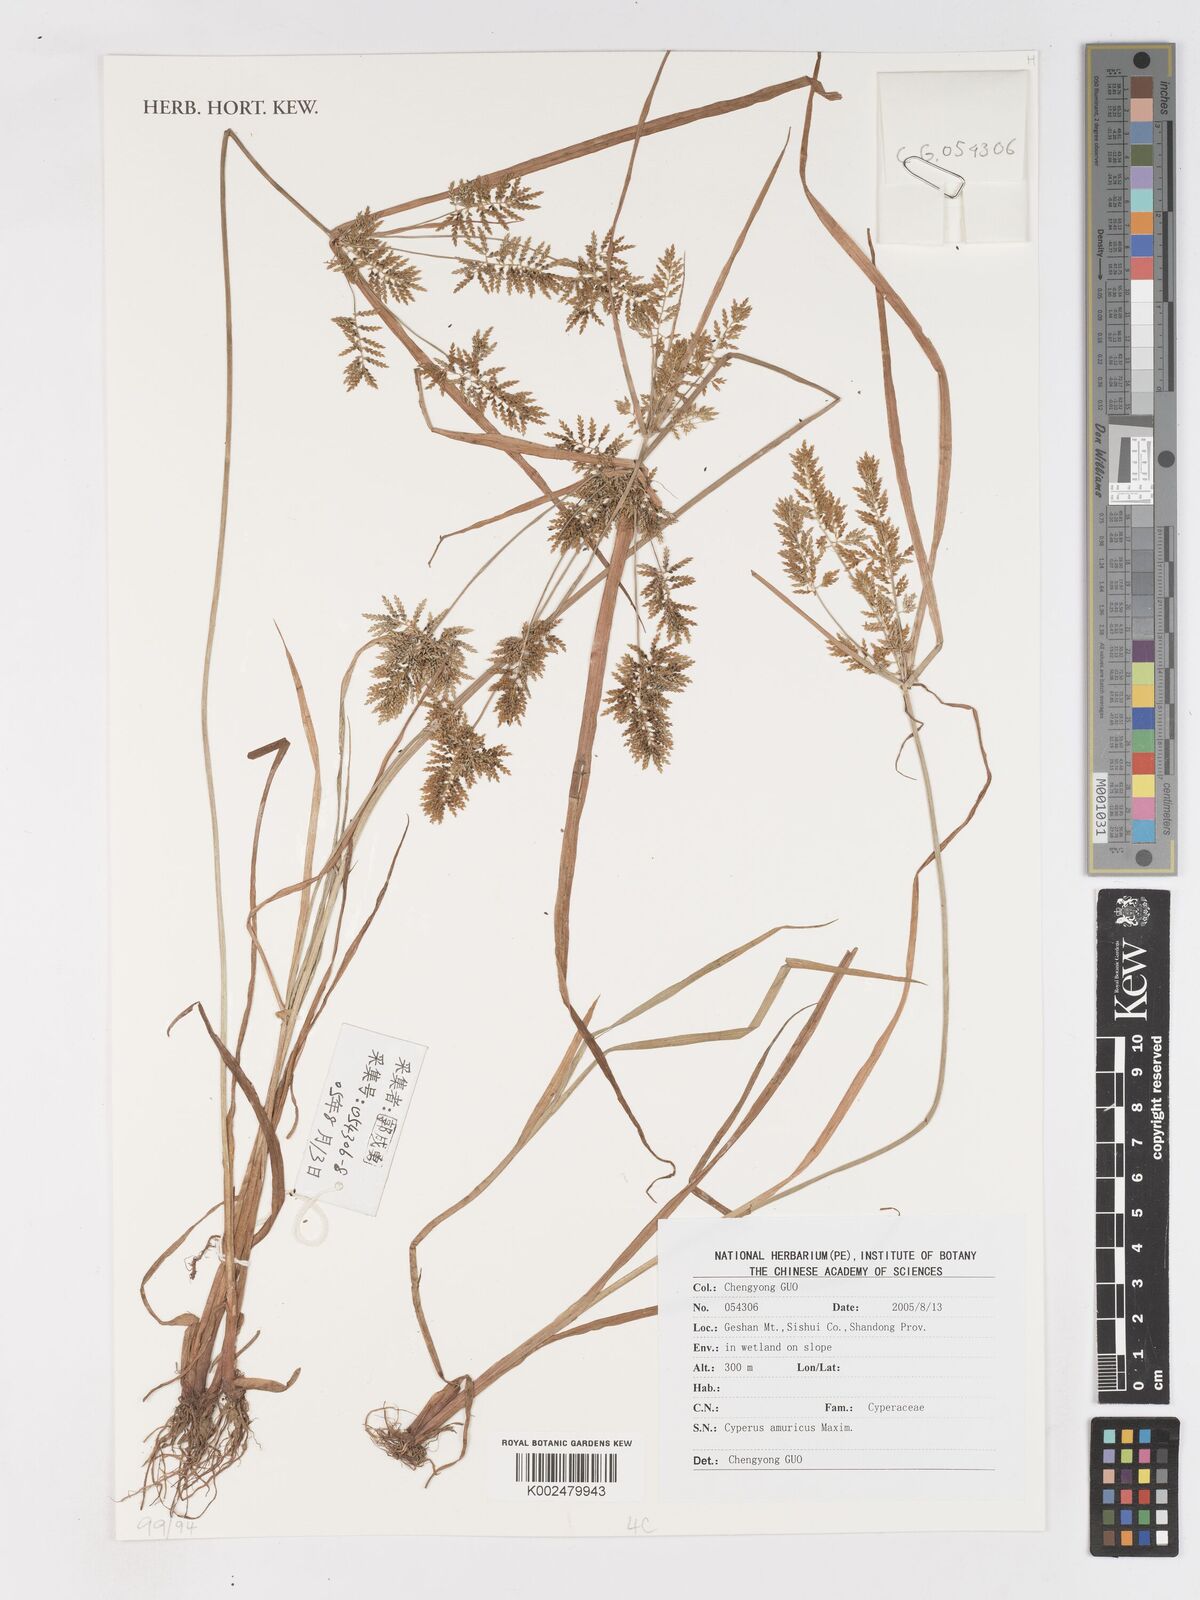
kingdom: Plantae
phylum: Tracheophyta
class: Liliopsida
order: Poales
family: Cyperaceae
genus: Cyperus
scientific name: Cyperus amuricus
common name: Asian flatsedge
